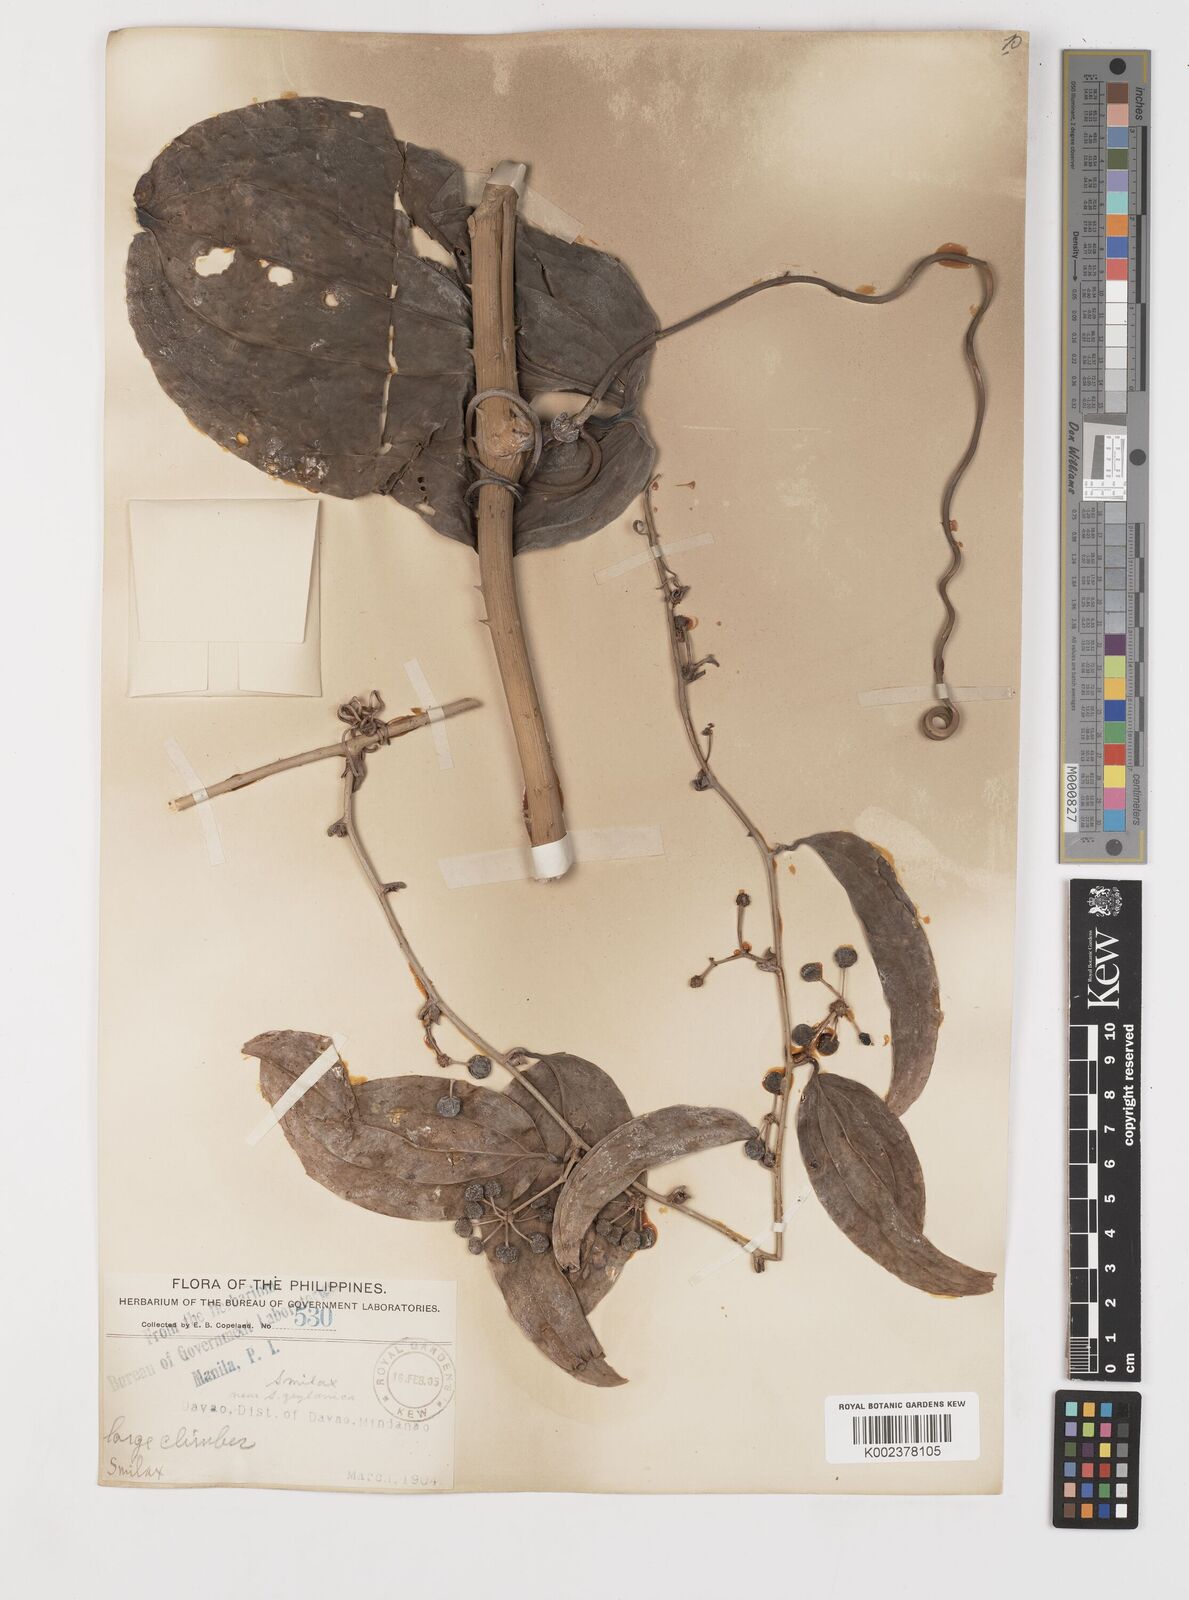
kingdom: Plantae
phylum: Tracheophyta
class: Liliopsida
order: Liliales
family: Smilacaceae
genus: Smilax
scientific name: Smilax
